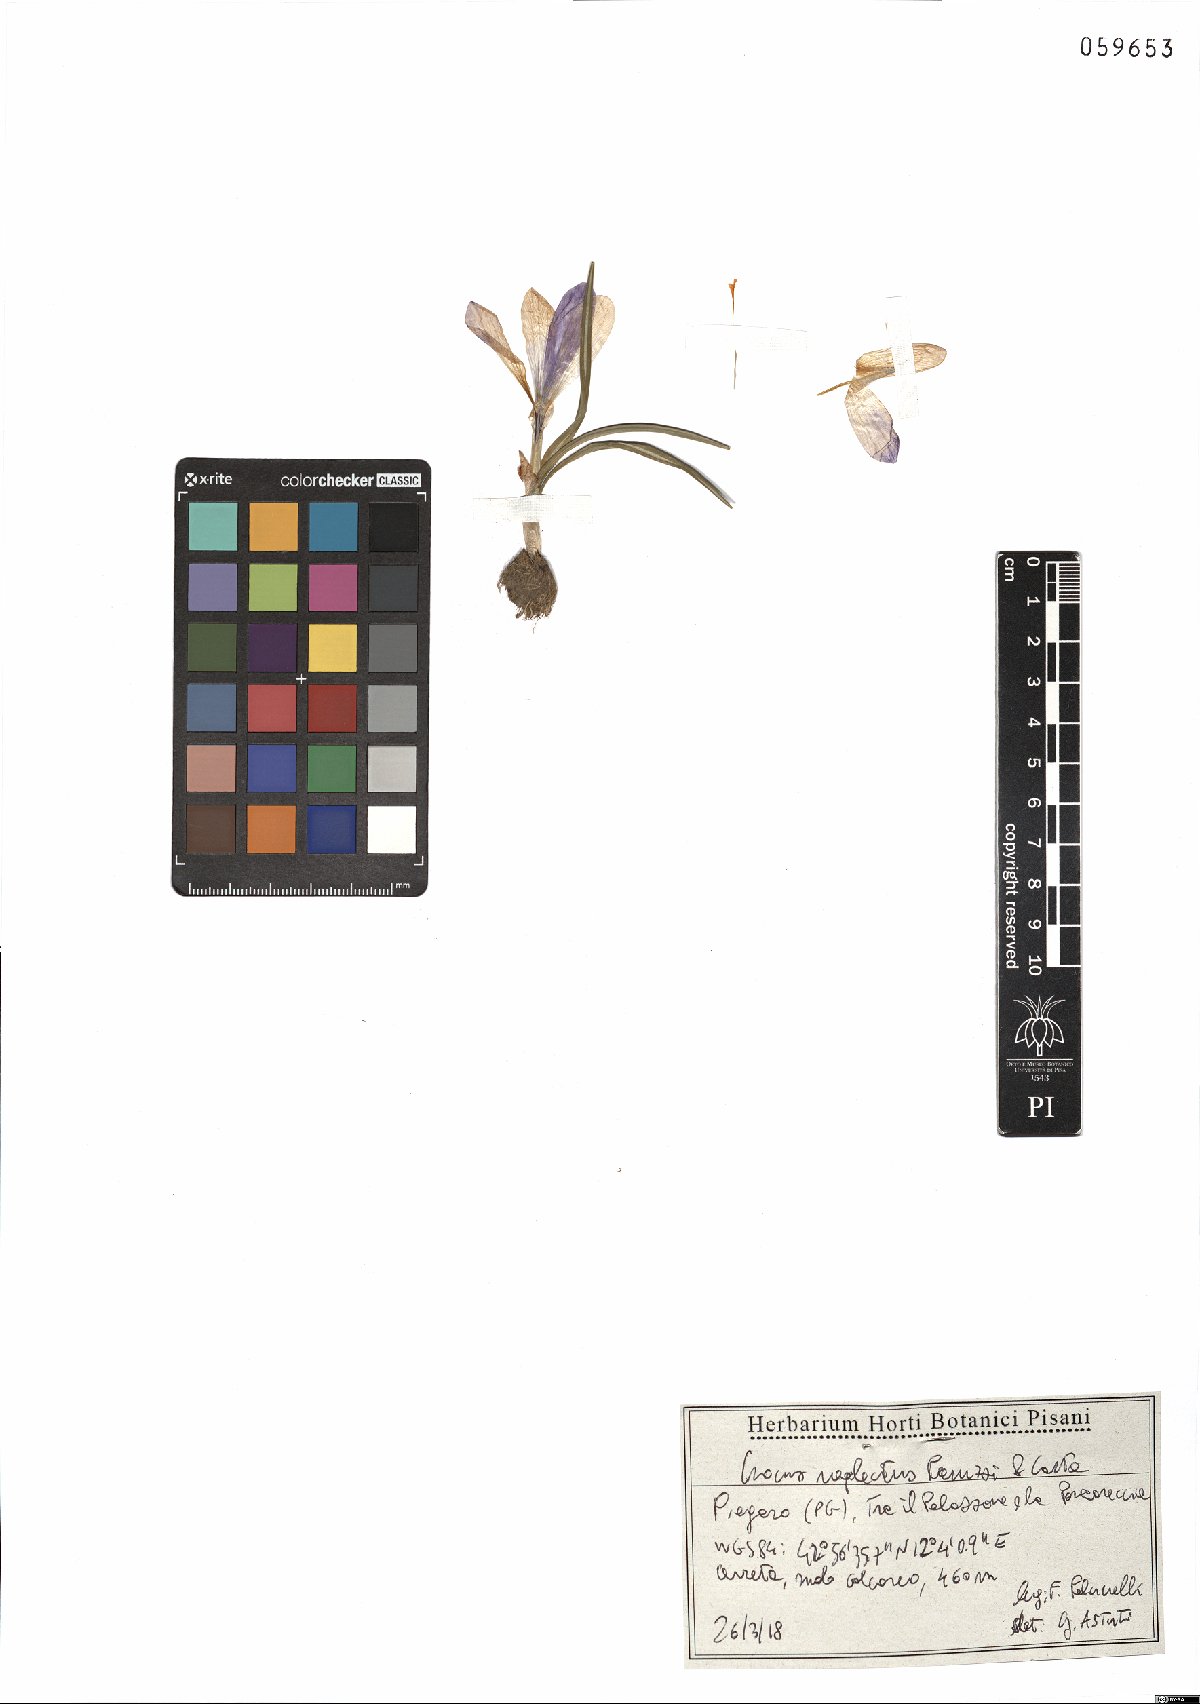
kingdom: Plantae
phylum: Tracheophyta
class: Liliopsida
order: Asparagales
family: Iridaceae
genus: Crocus
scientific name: Crocus neglectus
